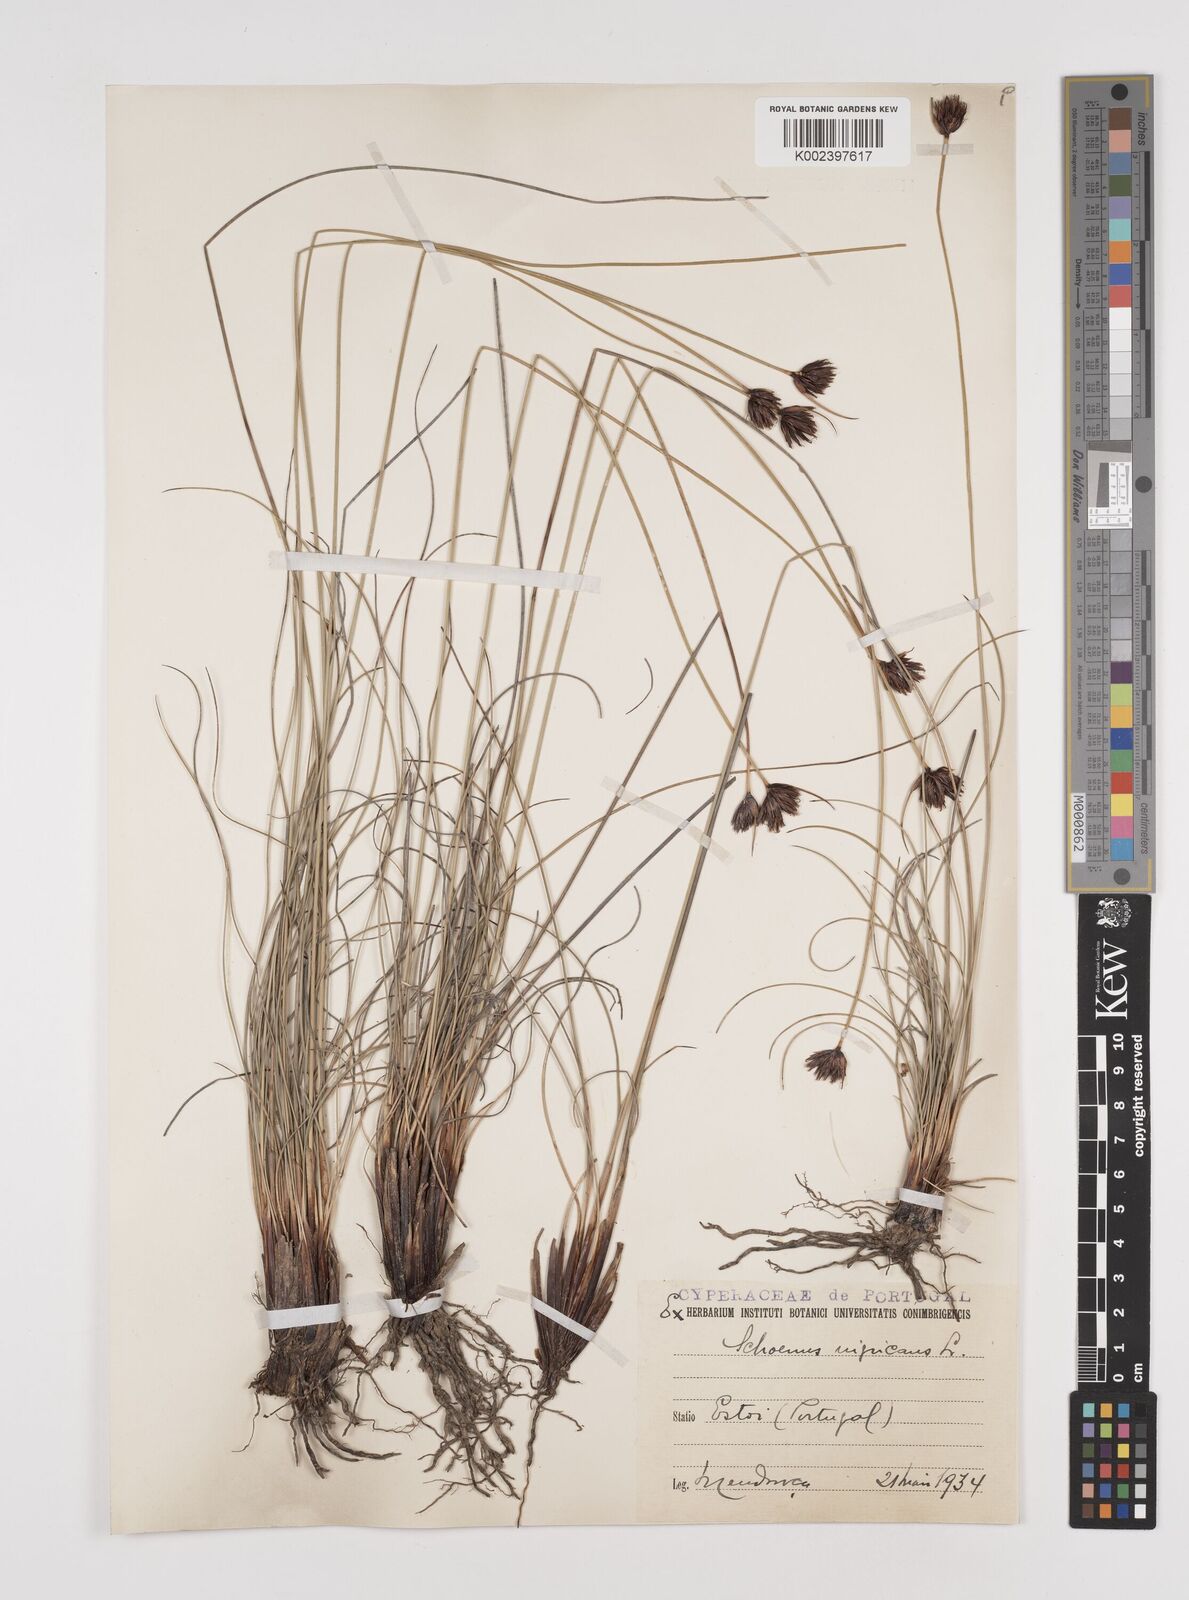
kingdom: Plantae
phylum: Tracheophyta
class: Liliopsida
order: Poales
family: Cyperaceae
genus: Schoenus
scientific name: Schoenus nigricans
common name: Black bog-rush
